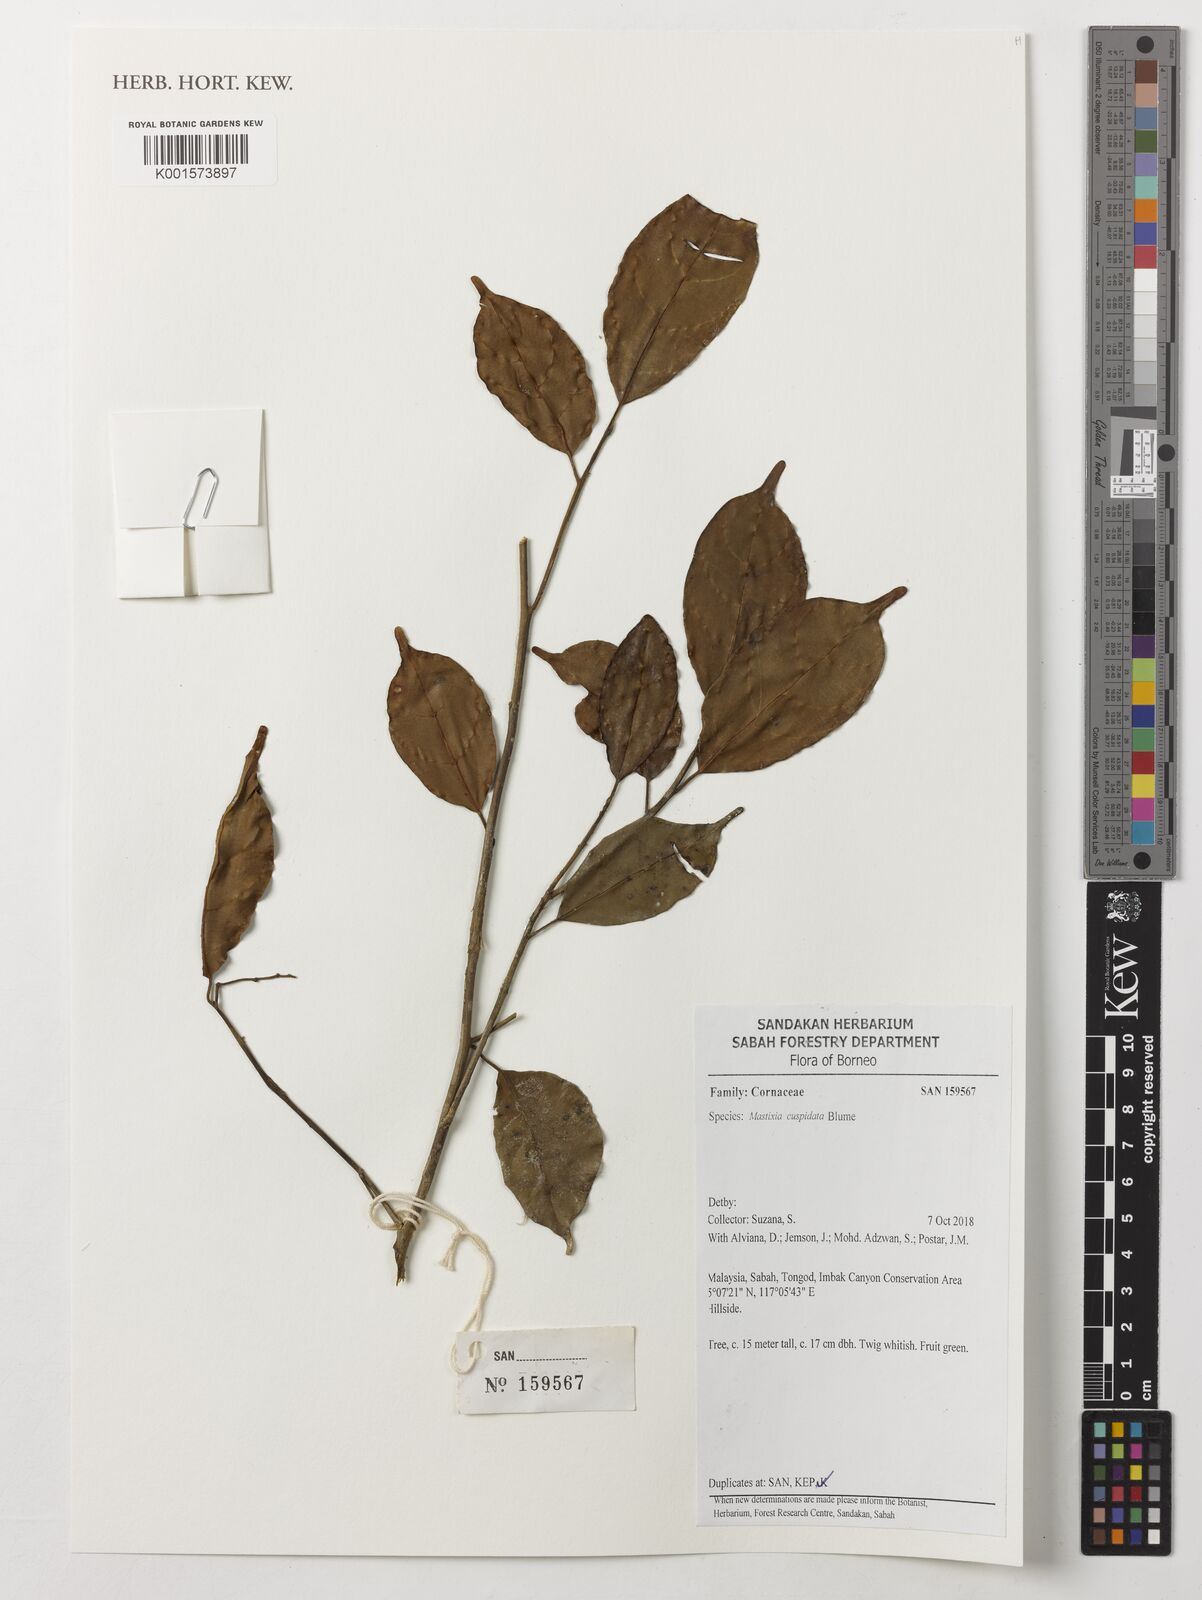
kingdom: Plantae
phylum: Tracheophyta
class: Magnoliopsida
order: Cornales
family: Nyssaceae
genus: Mastixia
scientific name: Mastixia cuspidata
